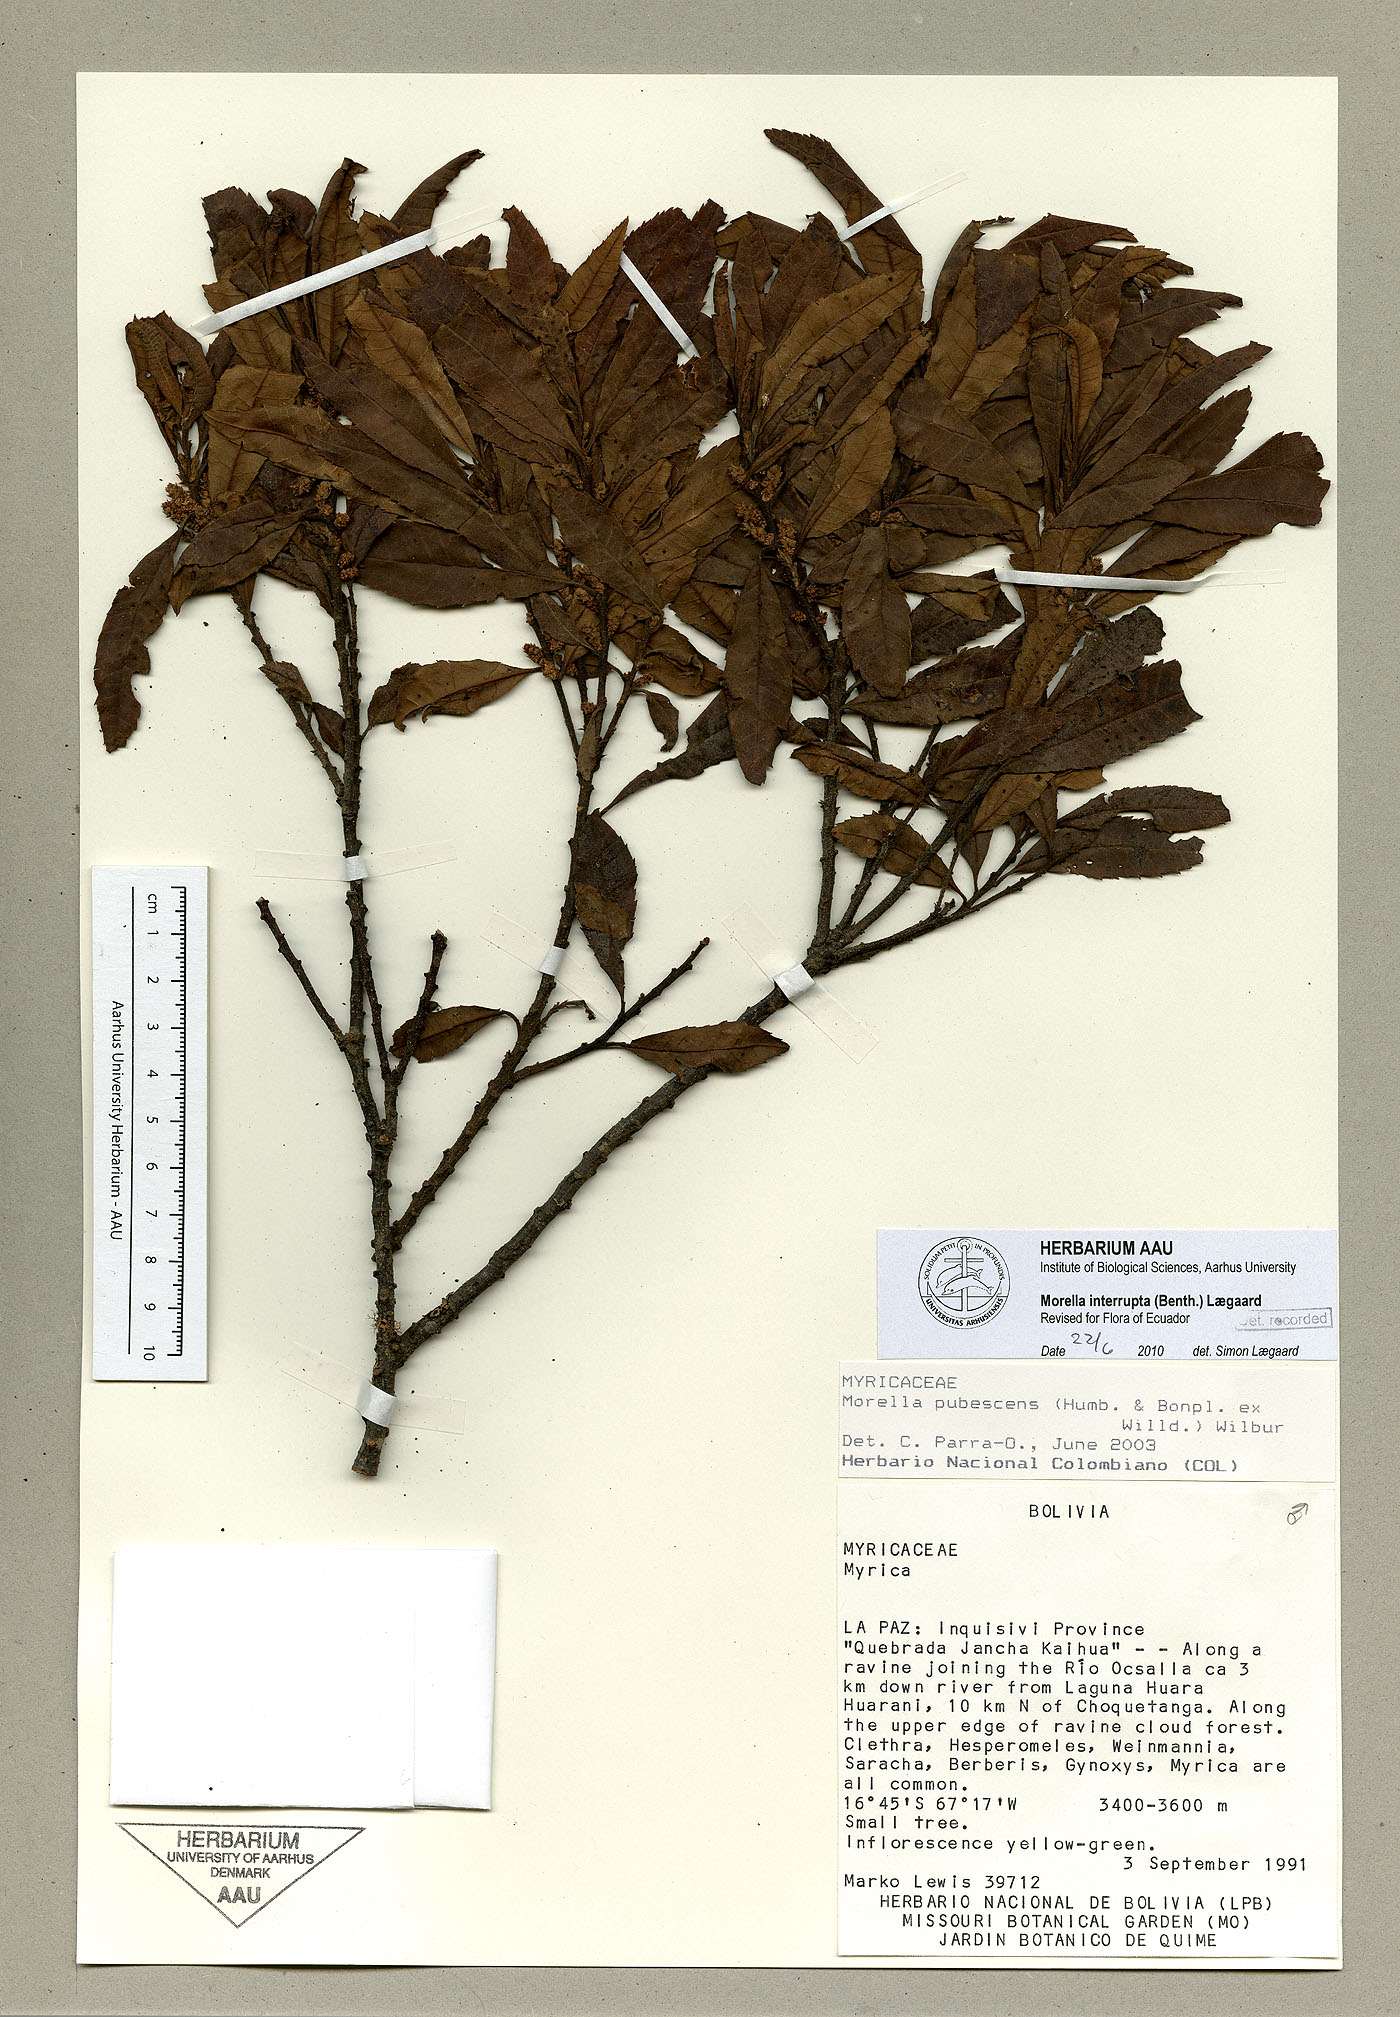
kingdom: Plantae
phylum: Tracheophyta
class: Magnoliopsida
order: Fagales
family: Myricaceae
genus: Morella
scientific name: Morella interrupta
